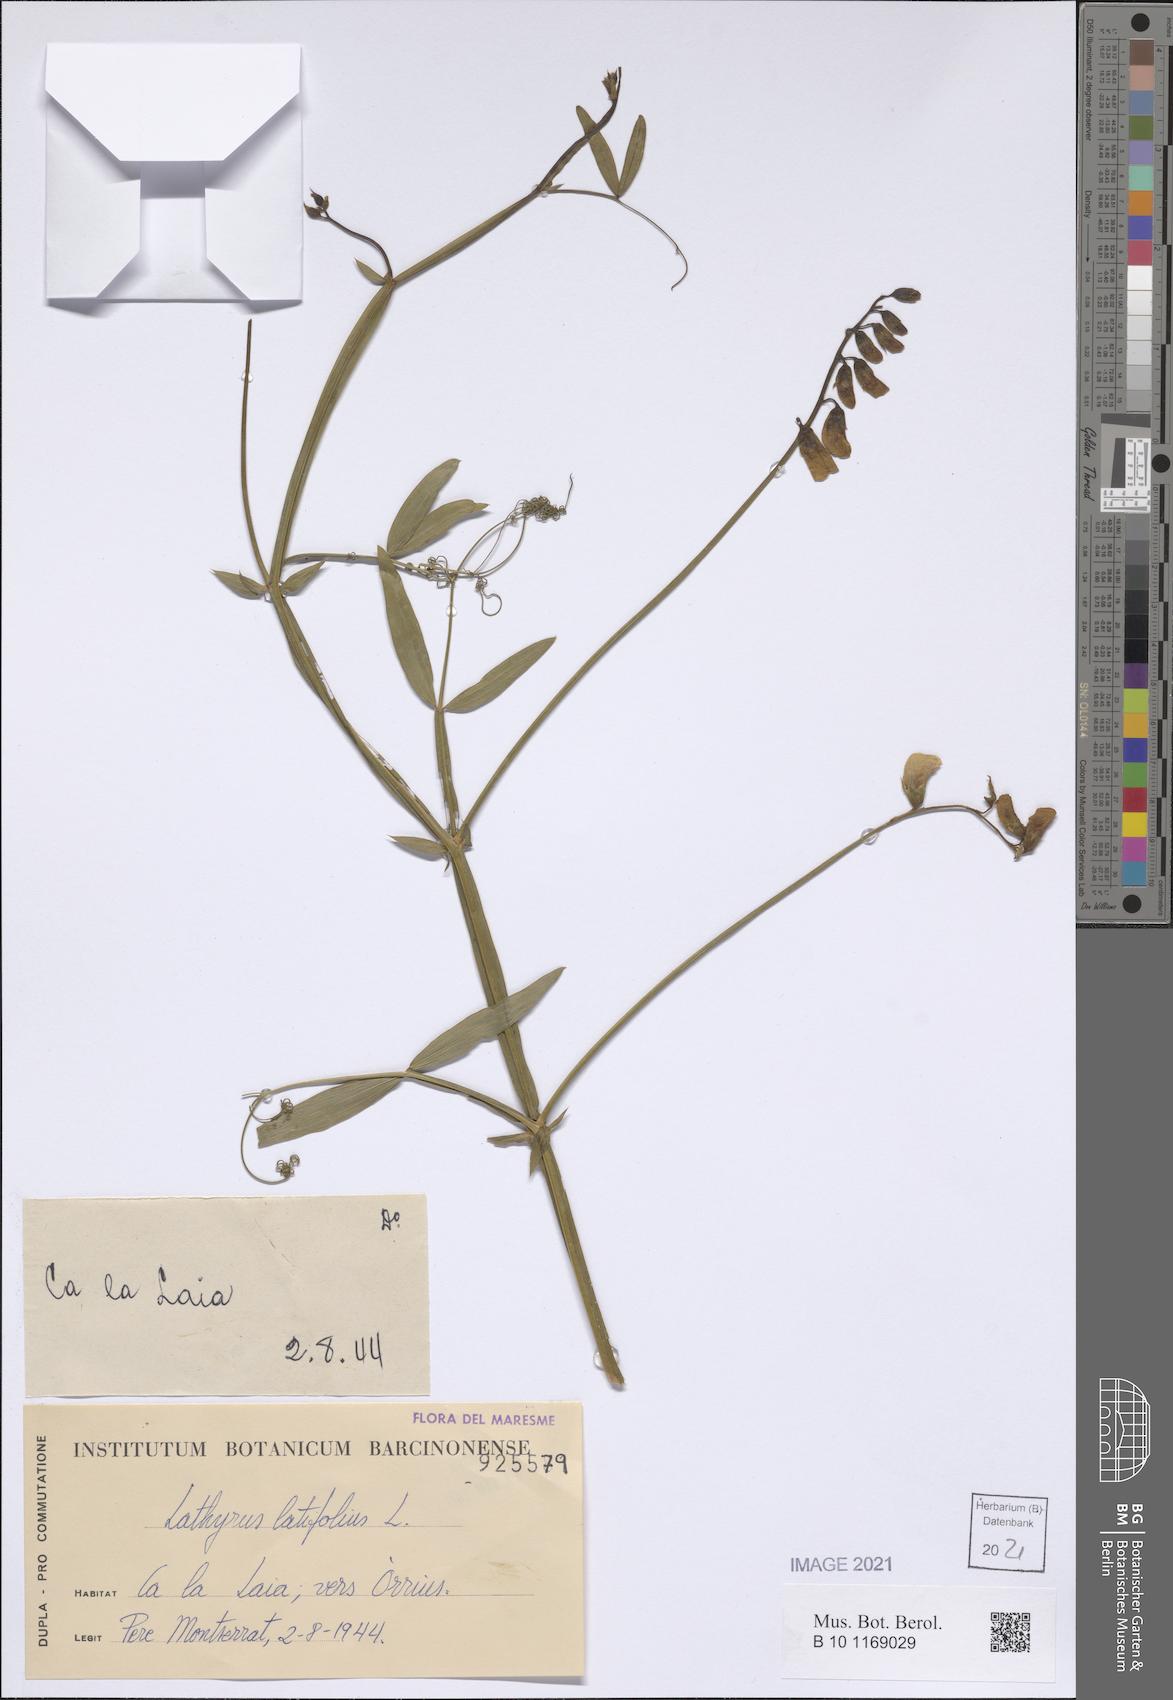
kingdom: Plantae
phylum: Tracheophyta
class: Magnoliopsida
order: Fabales
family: Fabaceae
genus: Lathyrus
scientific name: Lathyrus latifolius
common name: Perennial pea
